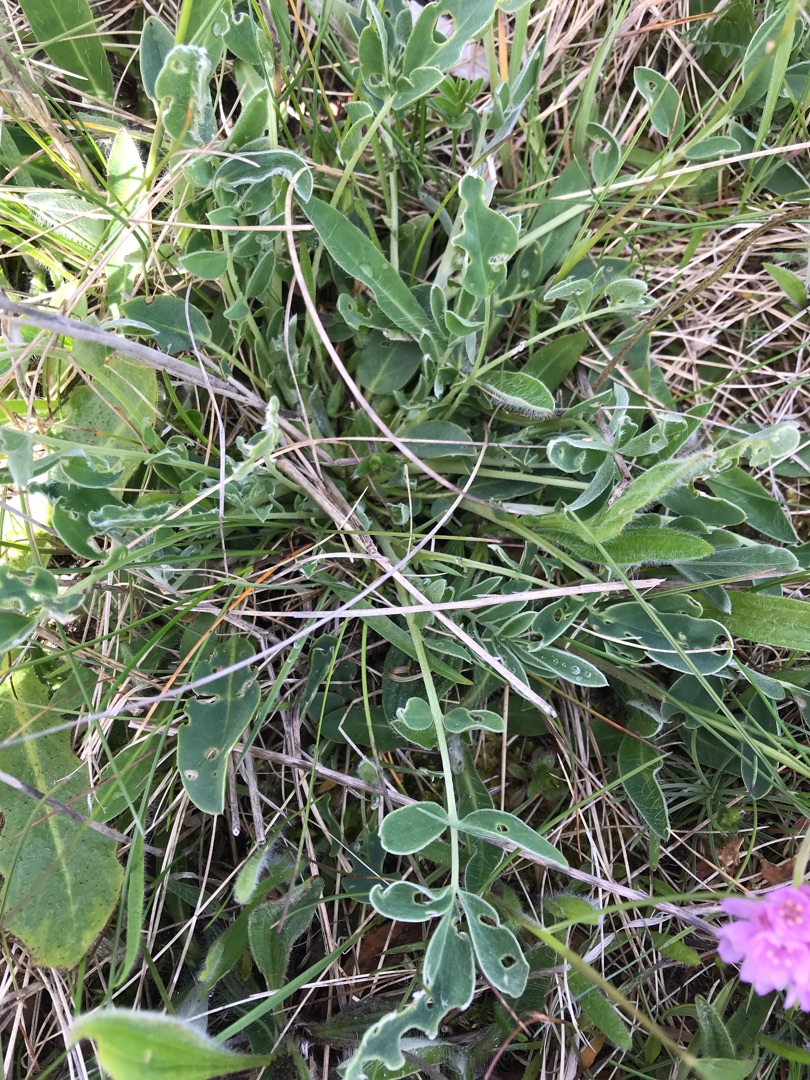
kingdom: Plantae
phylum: Tracheophyta
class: Magnoliopsida
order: Fabales
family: Fabaceae
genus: Anthyllis
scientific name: Anthyllis vulneraria
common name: Rundbælg
